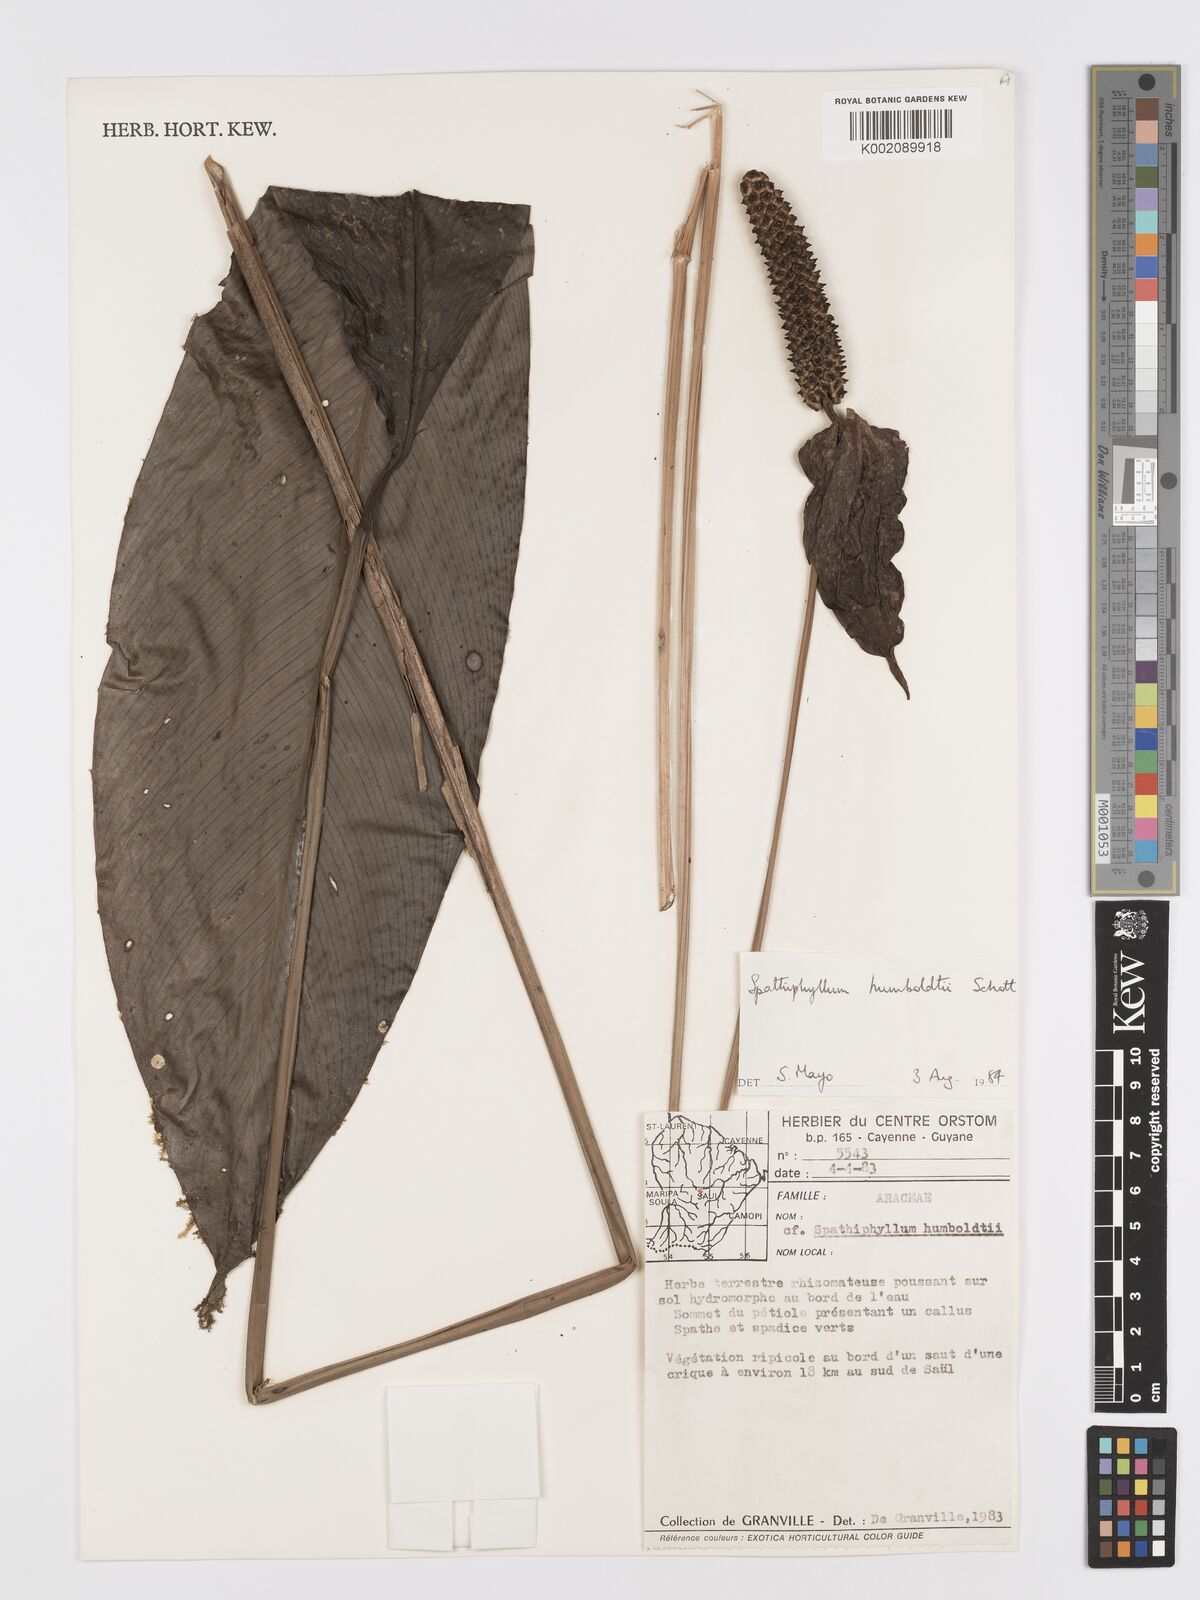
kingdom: Plantae
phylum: Tracheophyta
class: Liliopsida
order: Alismatales
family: Araceae
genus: Spathiphyllum
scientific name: Spathiphyllum humboldtii
